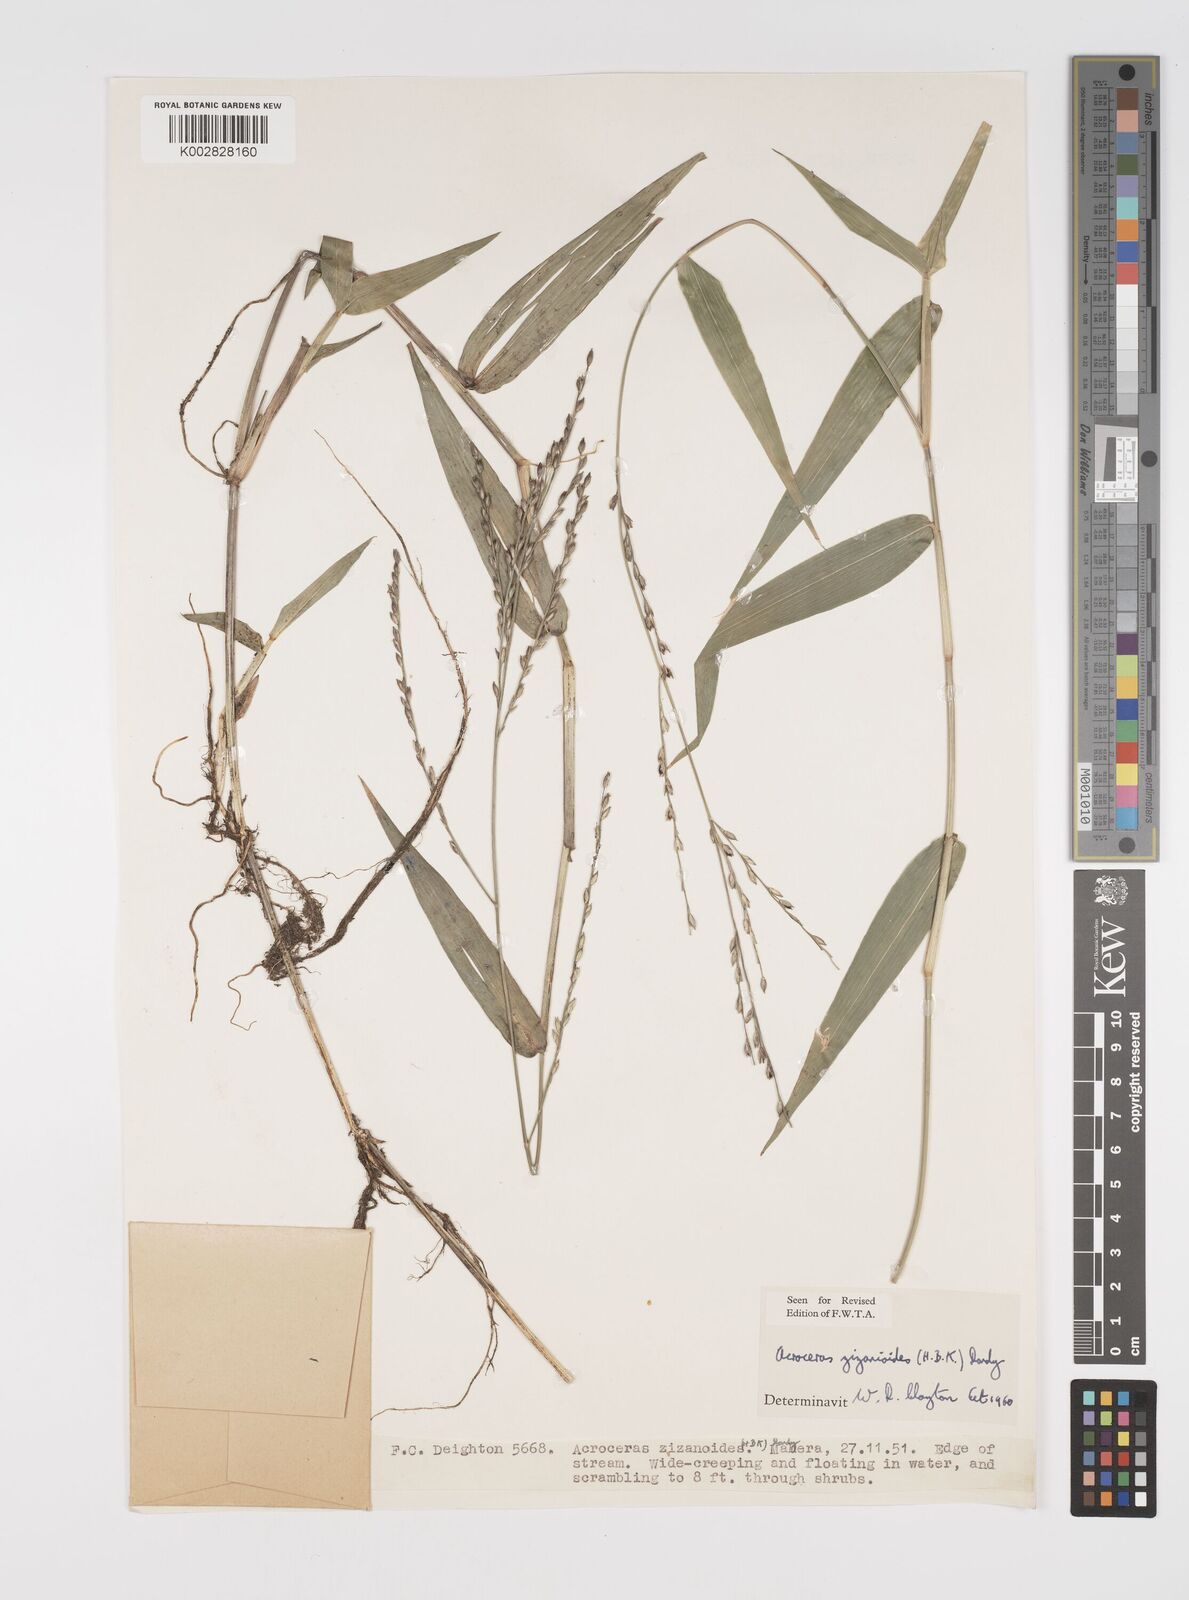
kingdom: Plantae
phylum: Tracheophyta
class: Liliopsida
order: Poales
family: Poaceae
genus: Acroceras
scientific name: Acroceras zizanioides
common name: Oat grass
